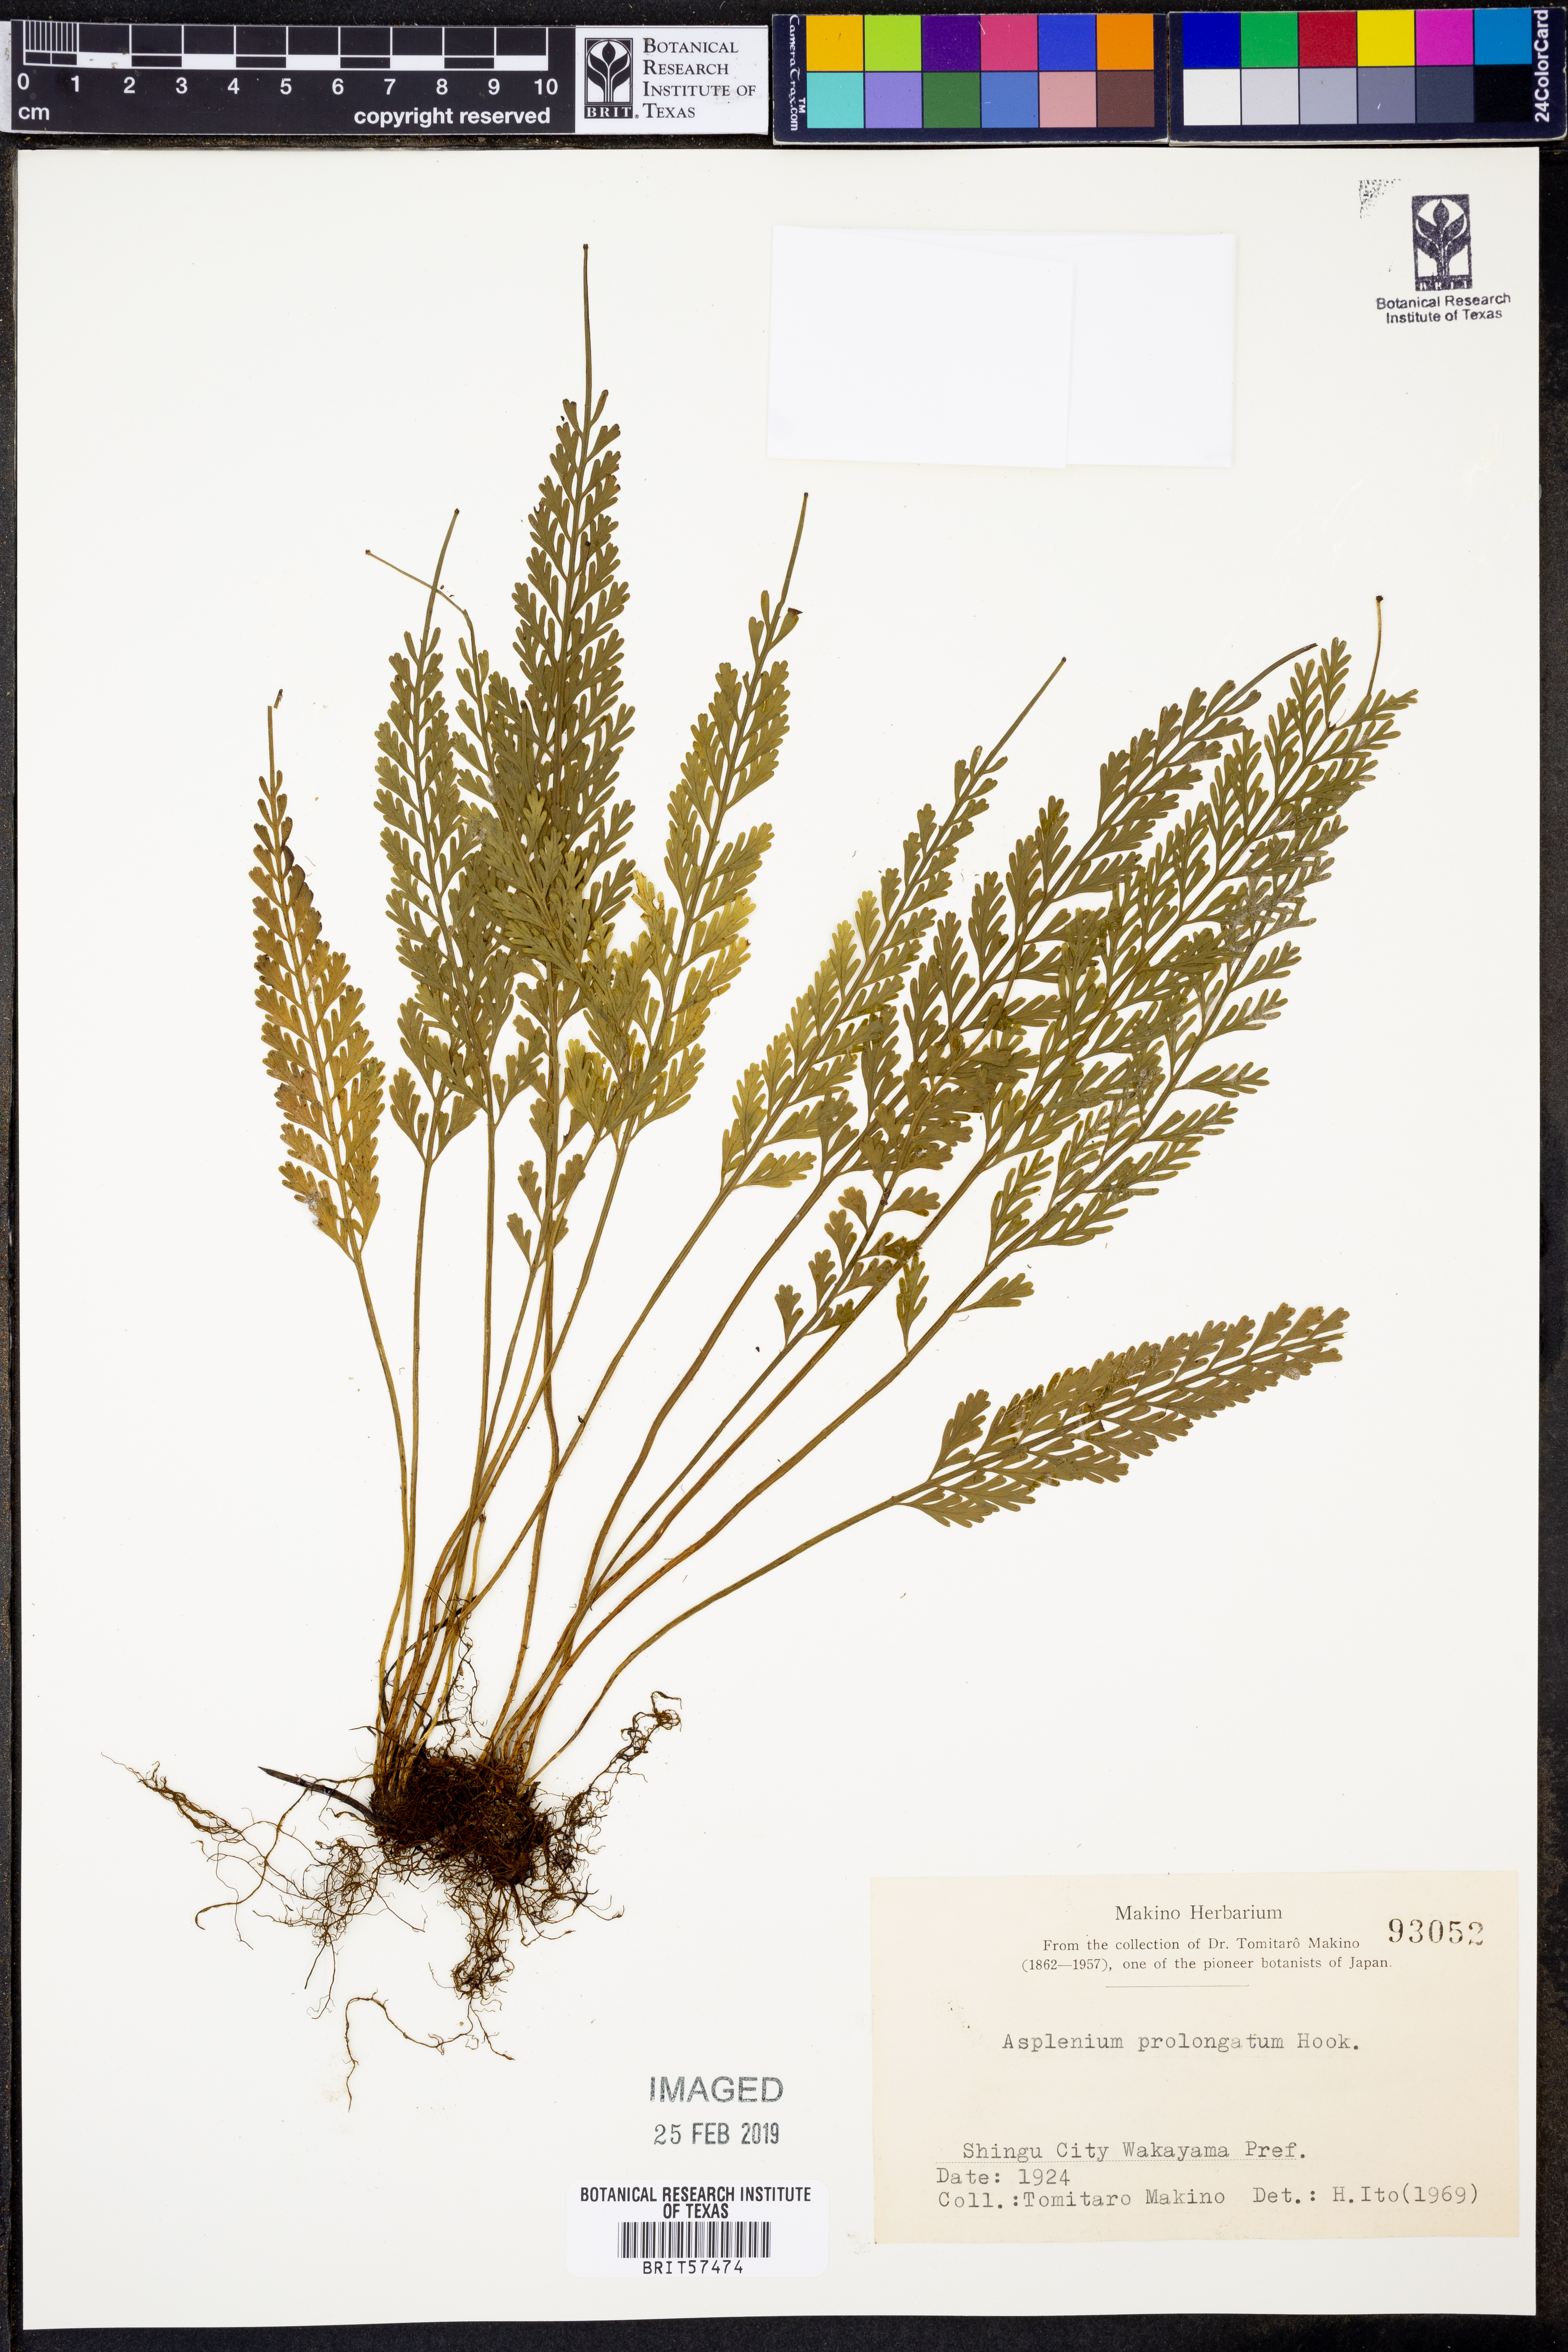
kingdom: Plantae
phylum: Tracheophyta
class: Polypodiopsida
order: Polypodiales
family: Aspleniaceae
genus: Asplenium
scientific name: Asplenium prolongatum
